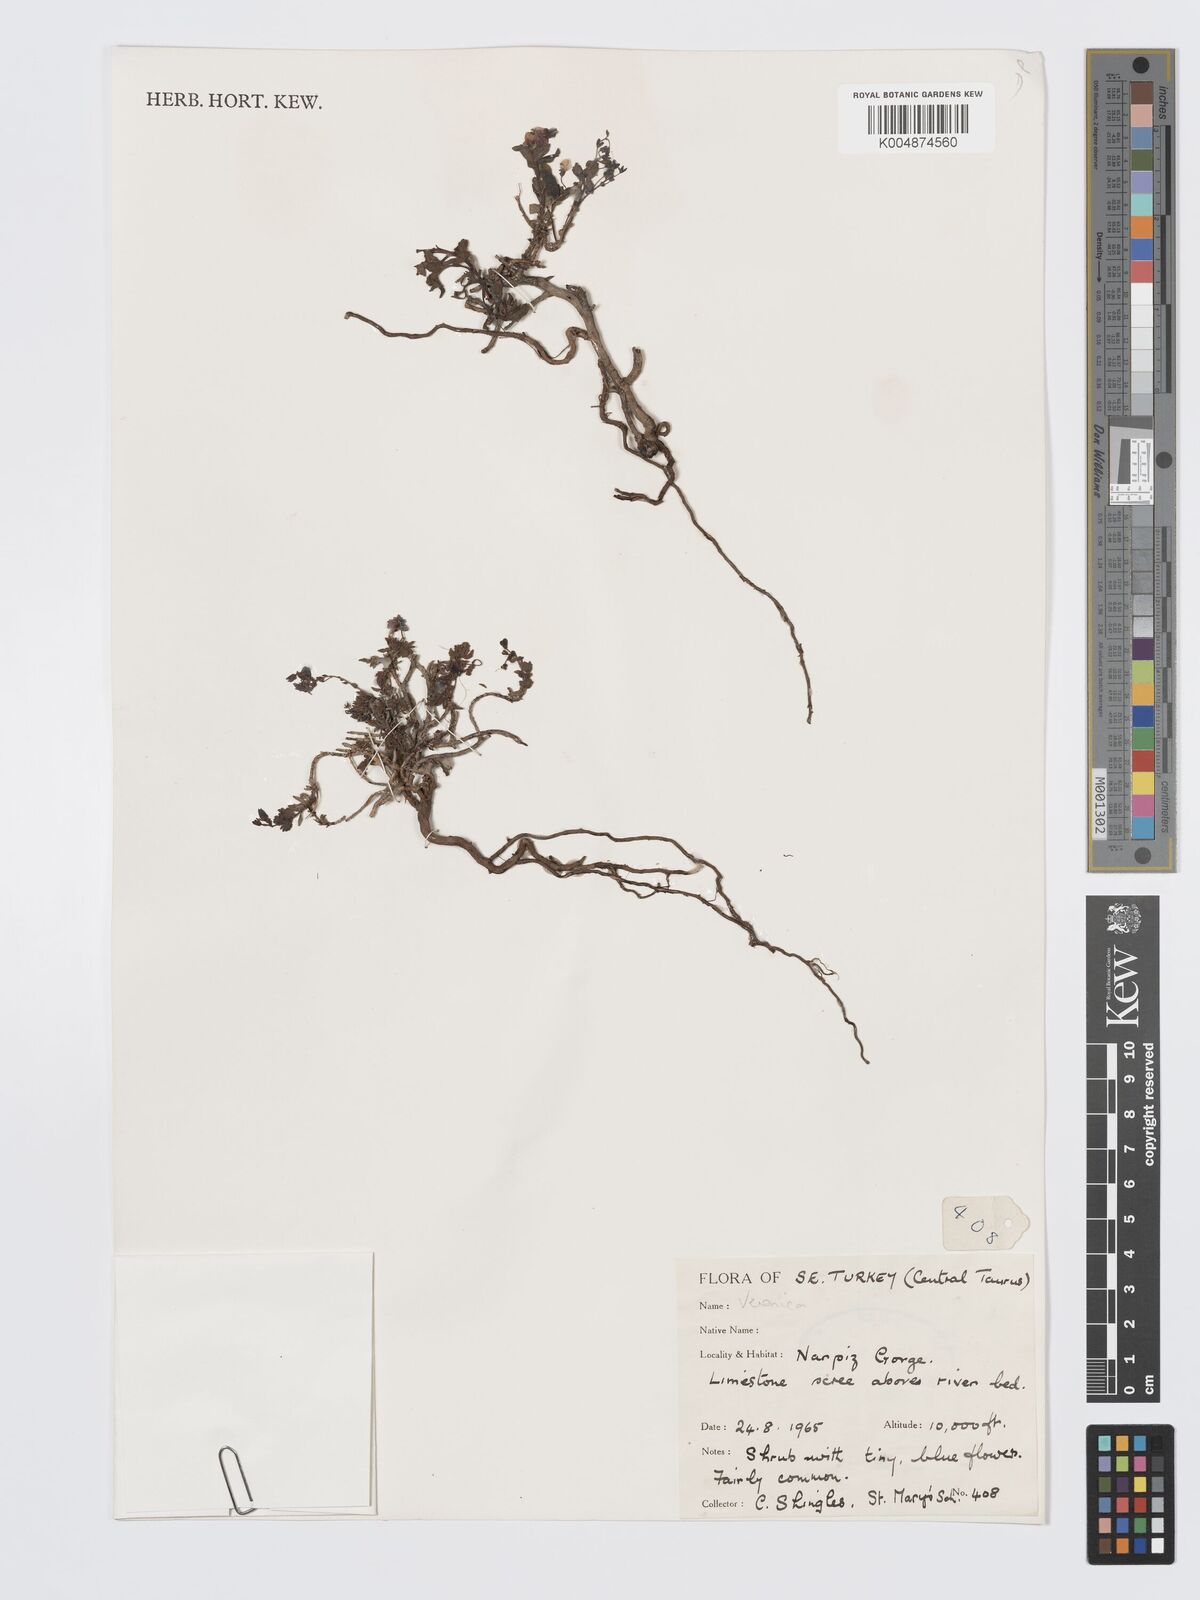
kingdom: Plantae
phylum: Tracheophyta
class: Magnoliopsida
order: Lamiales
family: Plantaginaceae
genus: Veronica
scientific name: Veronica
